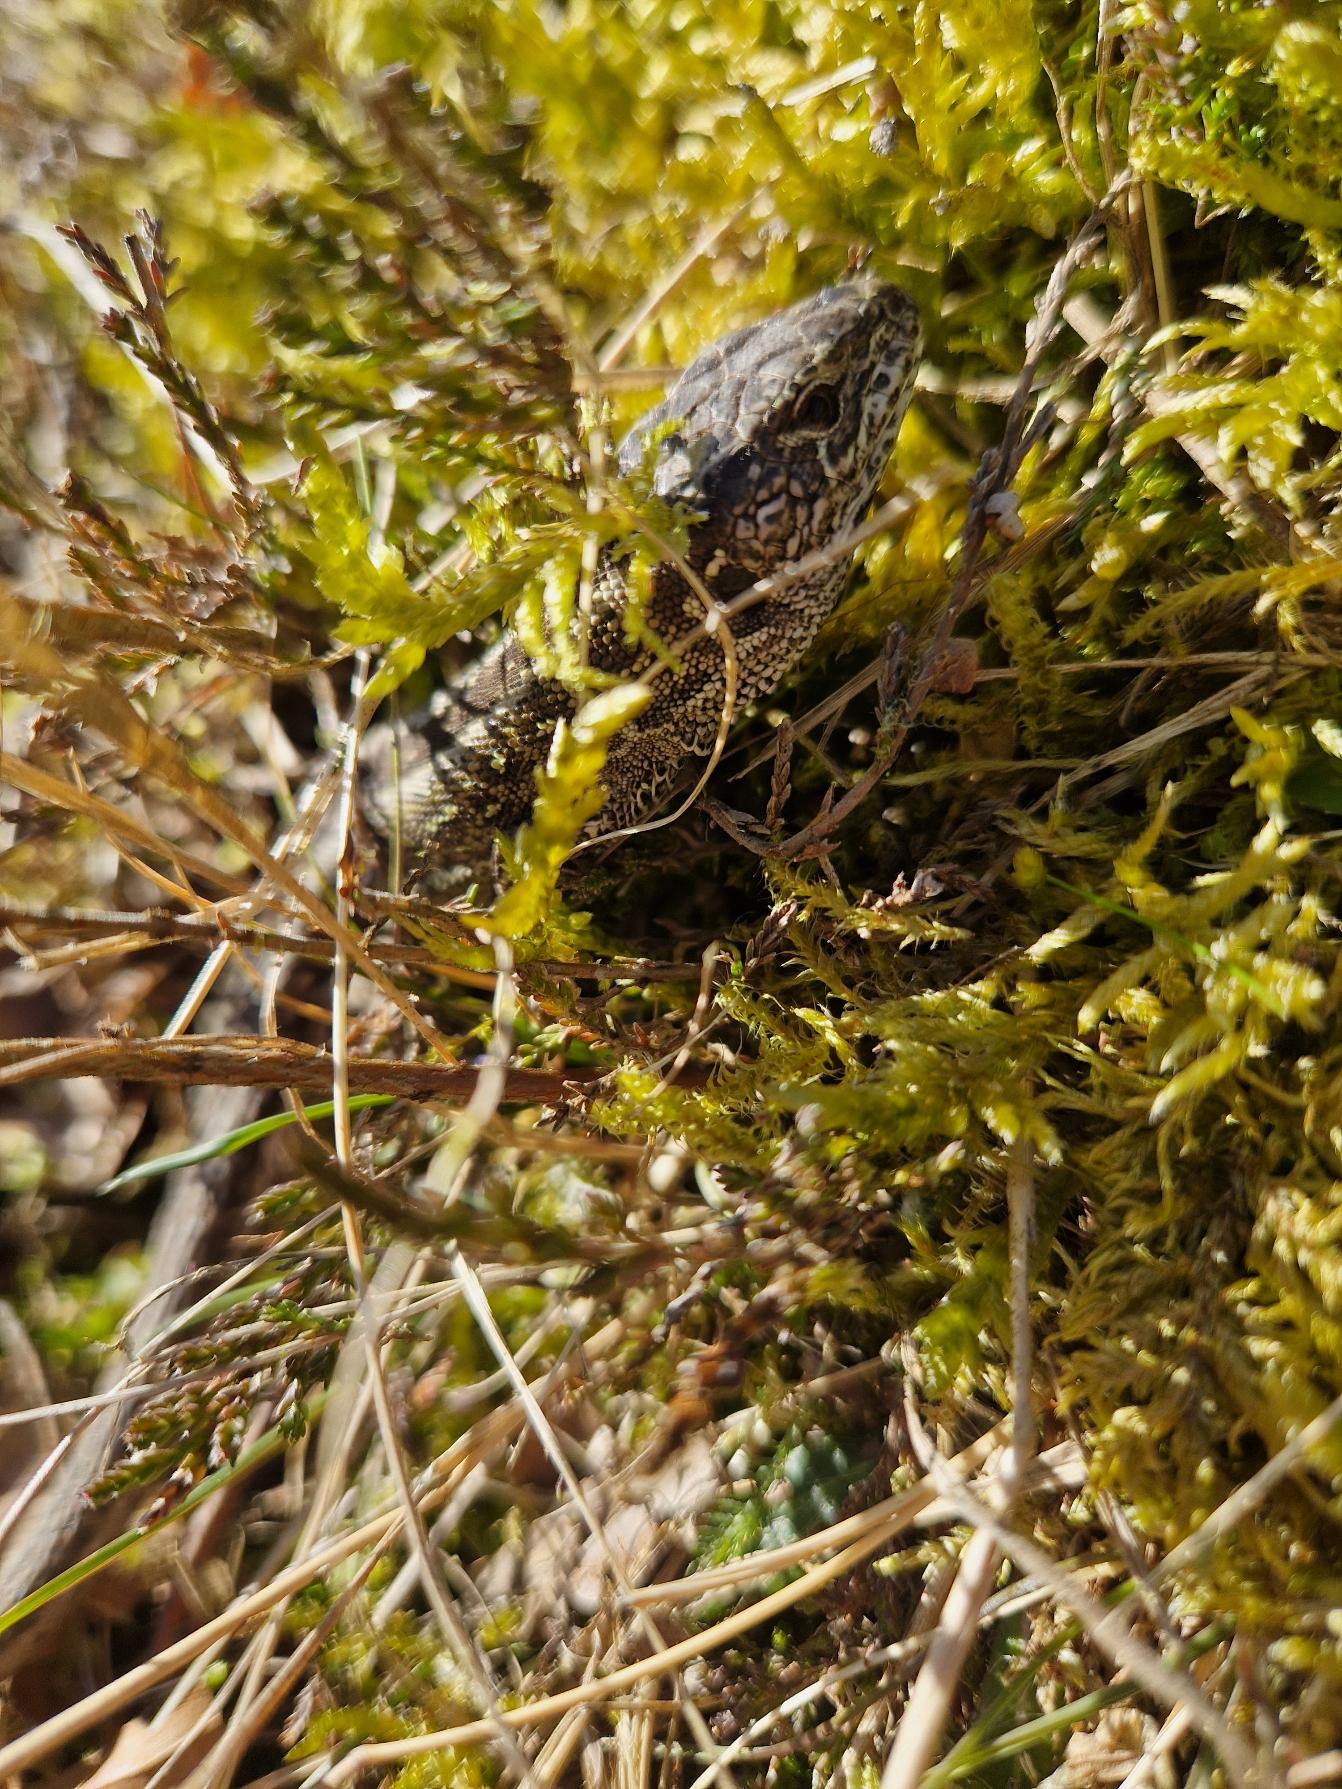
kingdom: Animalia
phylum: Chordata
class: Squamata
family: Lacertidae
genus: Lacerta
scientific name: Lacerta agilis
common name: Markfirben
